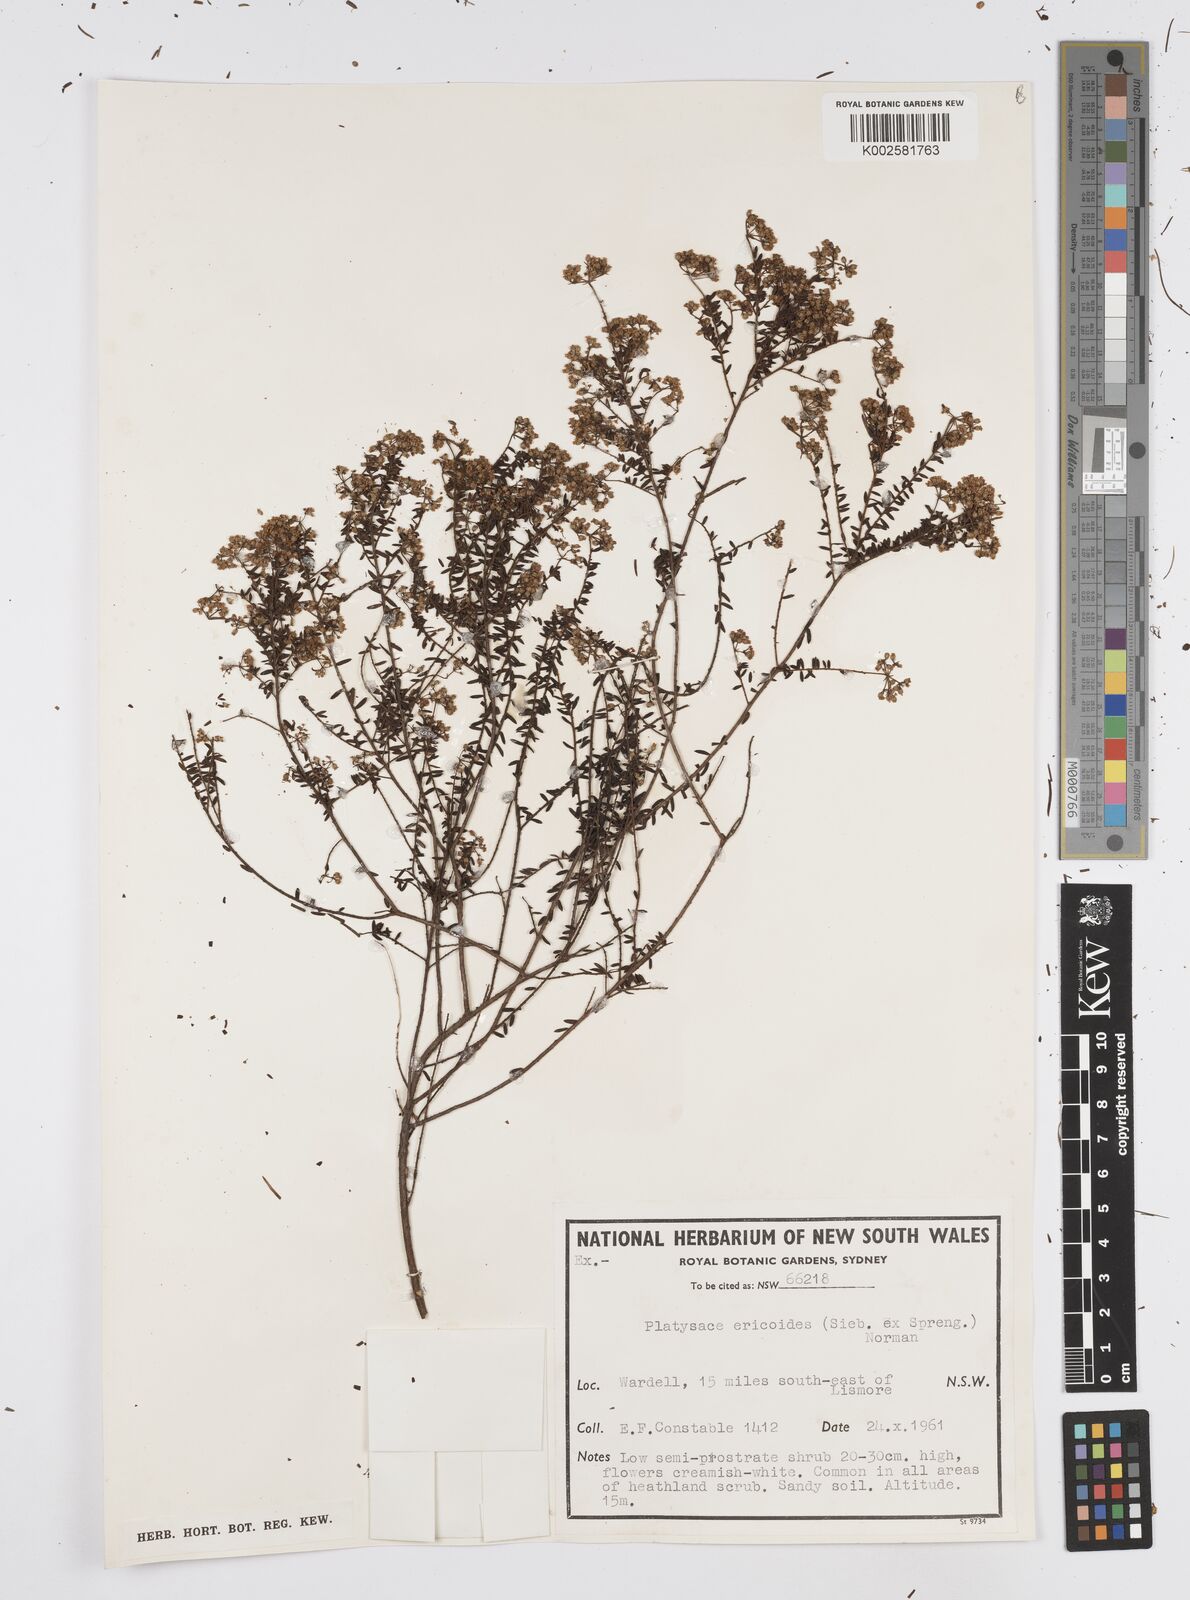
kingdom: Plantae
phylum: Tracheophyta
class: Magnoliopsida
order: Apiales
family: Apiaceae
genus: Platysace
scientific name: Platysace ericoides
